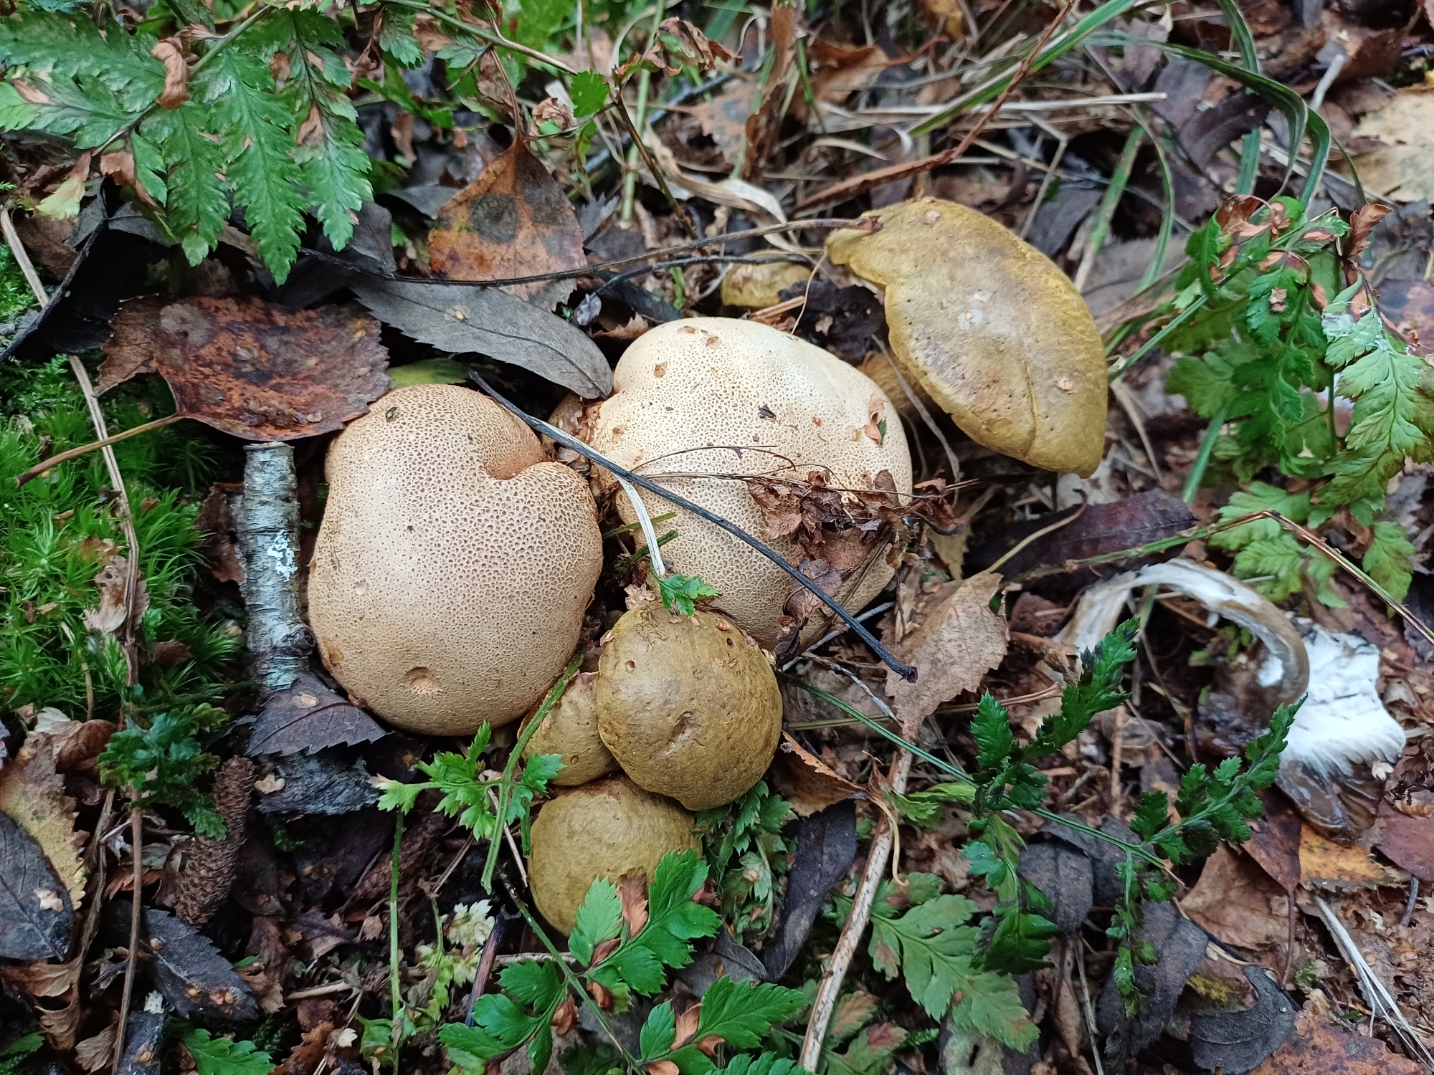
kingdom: Fungi
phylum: Basidiomycota
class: Agaricomycetes
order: Boletales
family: Boletaceae
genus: Pseudoboletus
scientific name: Pseudoboletus parasiticus
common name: snyltende rørhat
